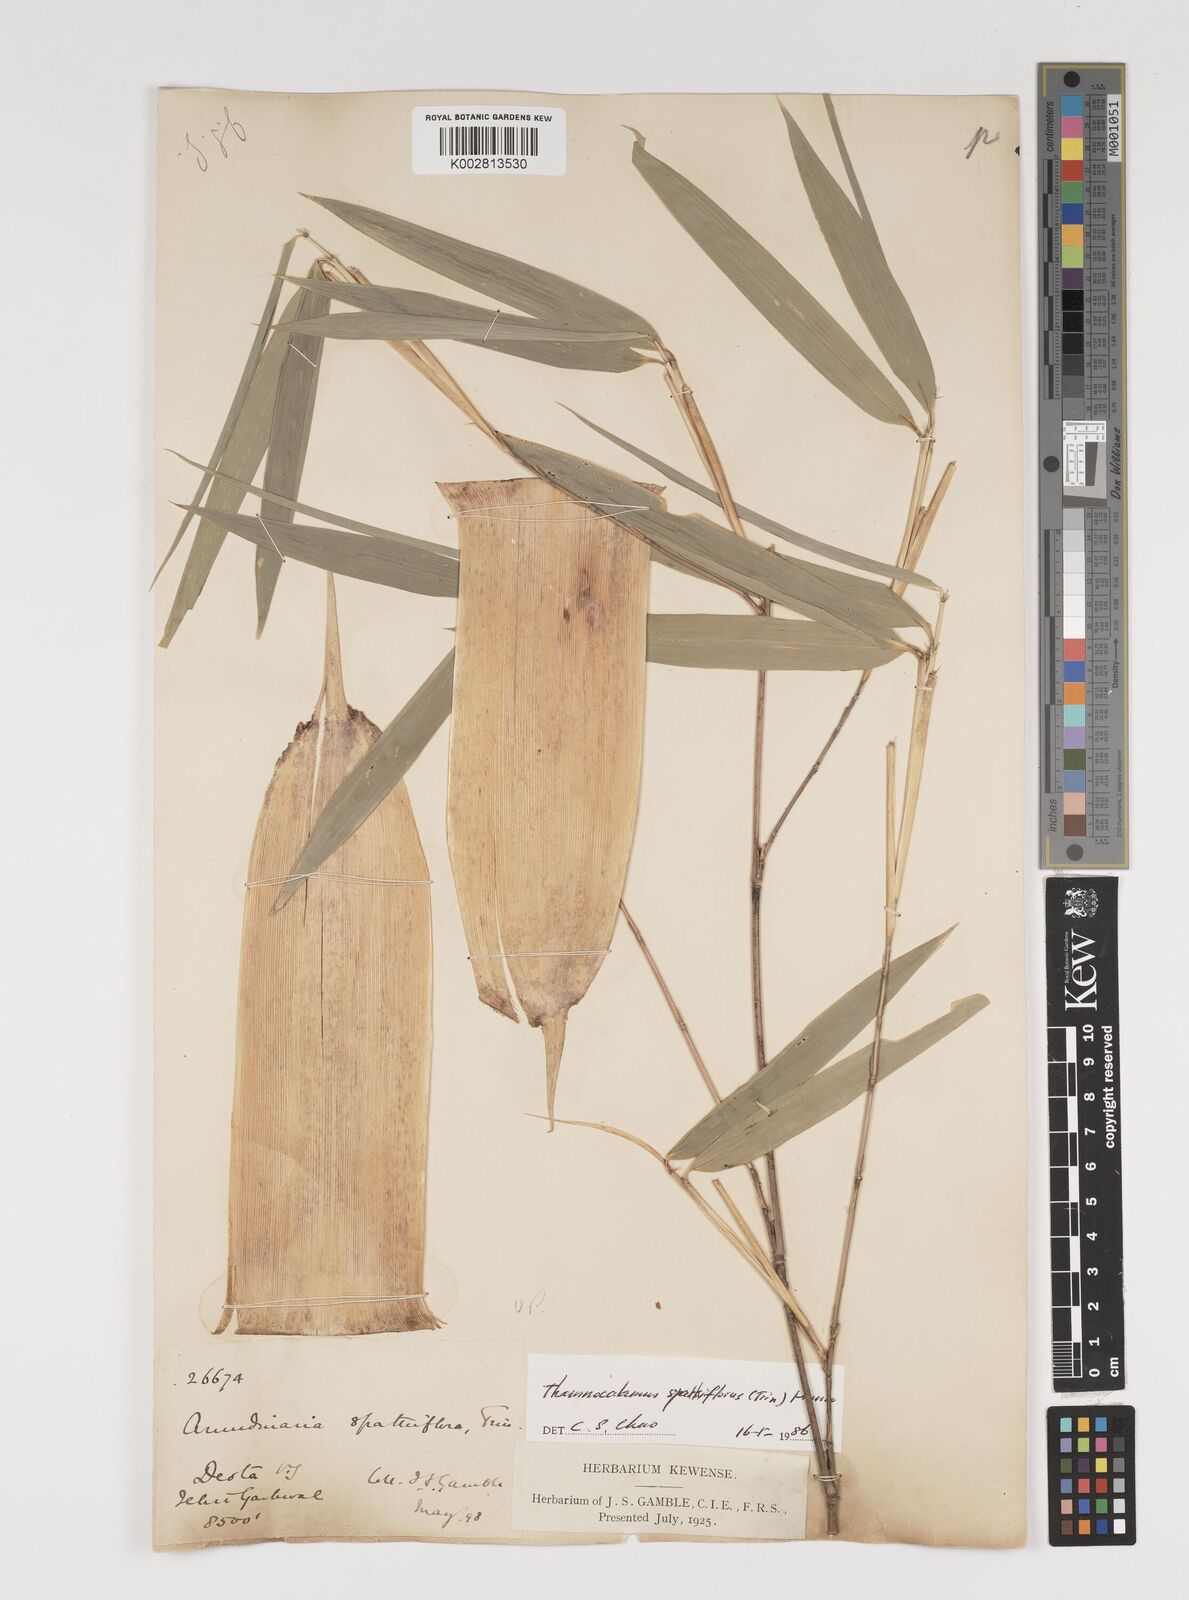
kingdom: Plantae
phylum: Tracheophyta
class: Liliopsida
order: Poales
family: Poaceae
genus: Thamnocalamus
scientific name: Thamnocalamus spathiflorus
